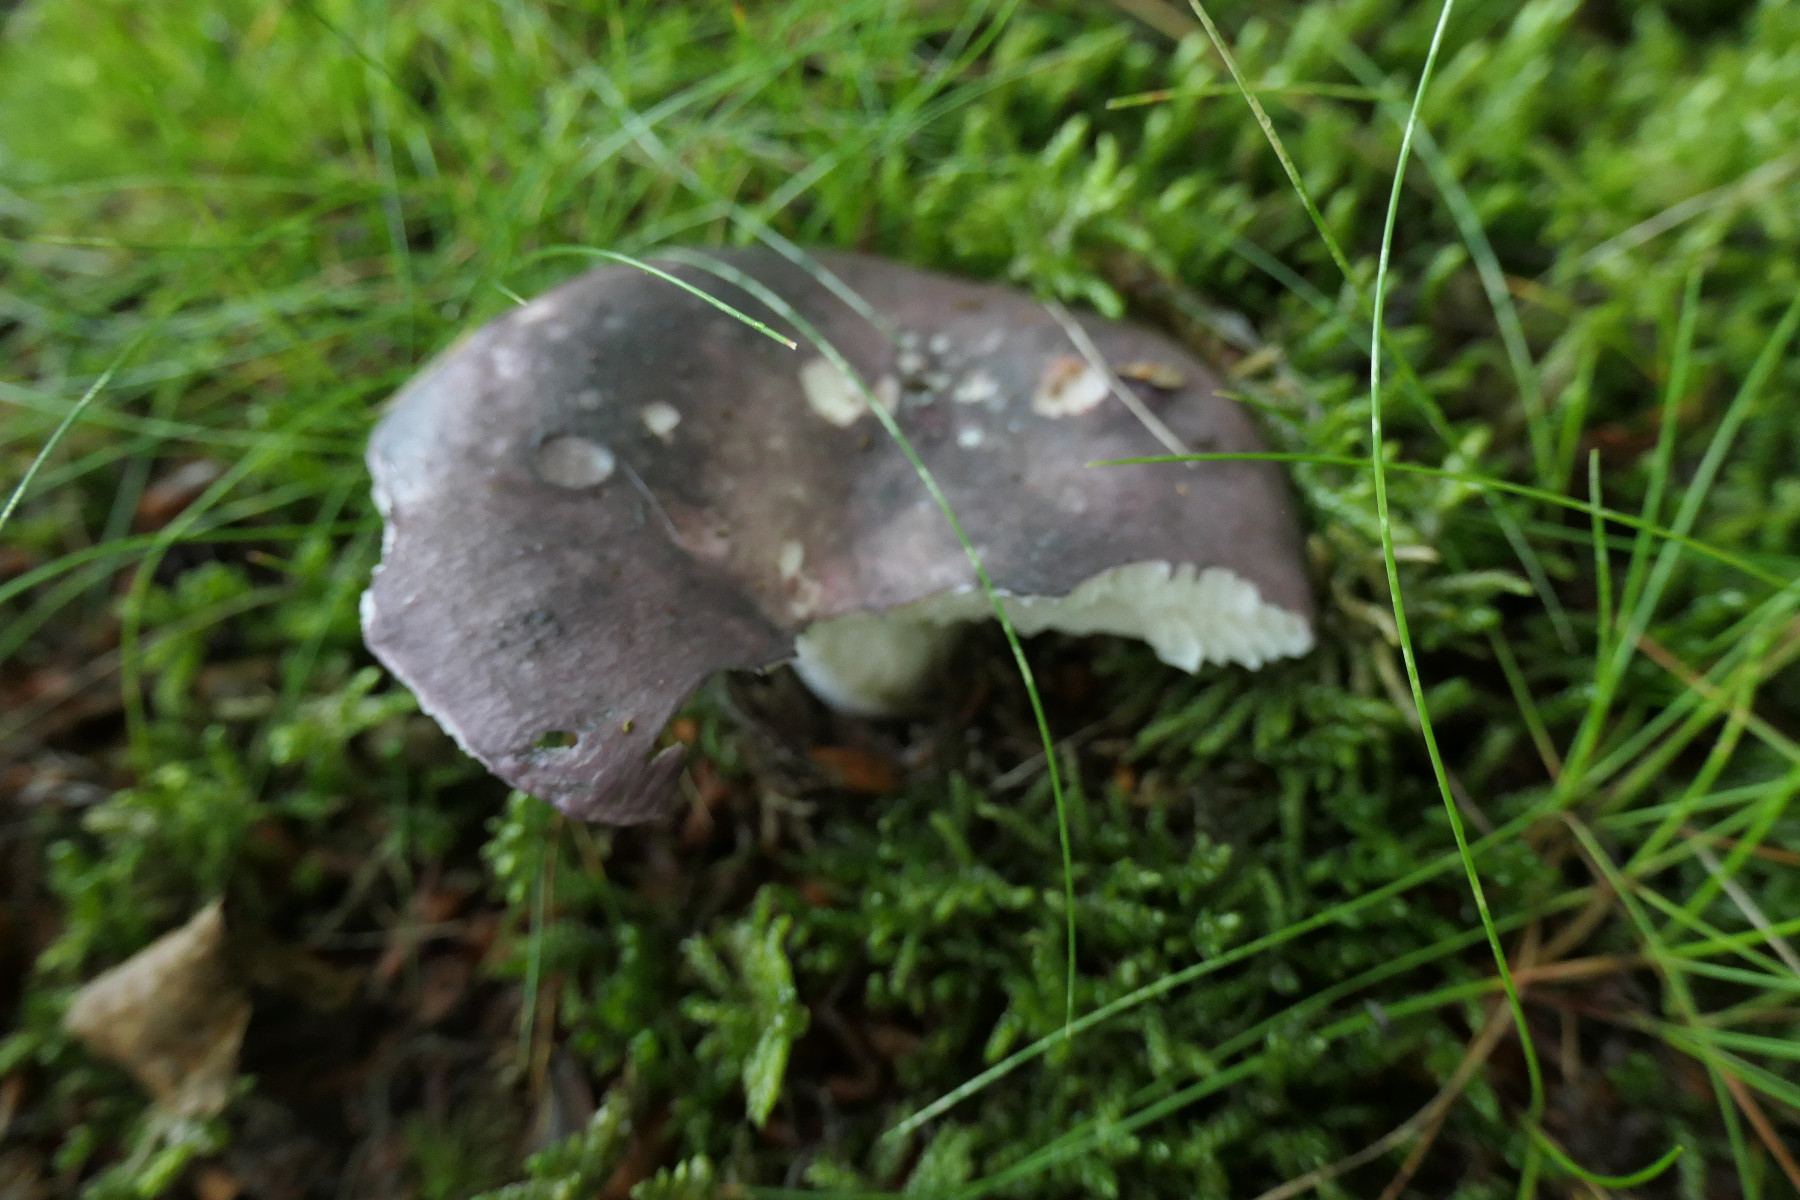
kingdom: Fungi
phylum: Basidiomycota
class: Agaricomycetes
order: Russulales
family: Russulaceae
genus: Russula
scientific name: Russula cyanoxantha
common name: broget skørhat
